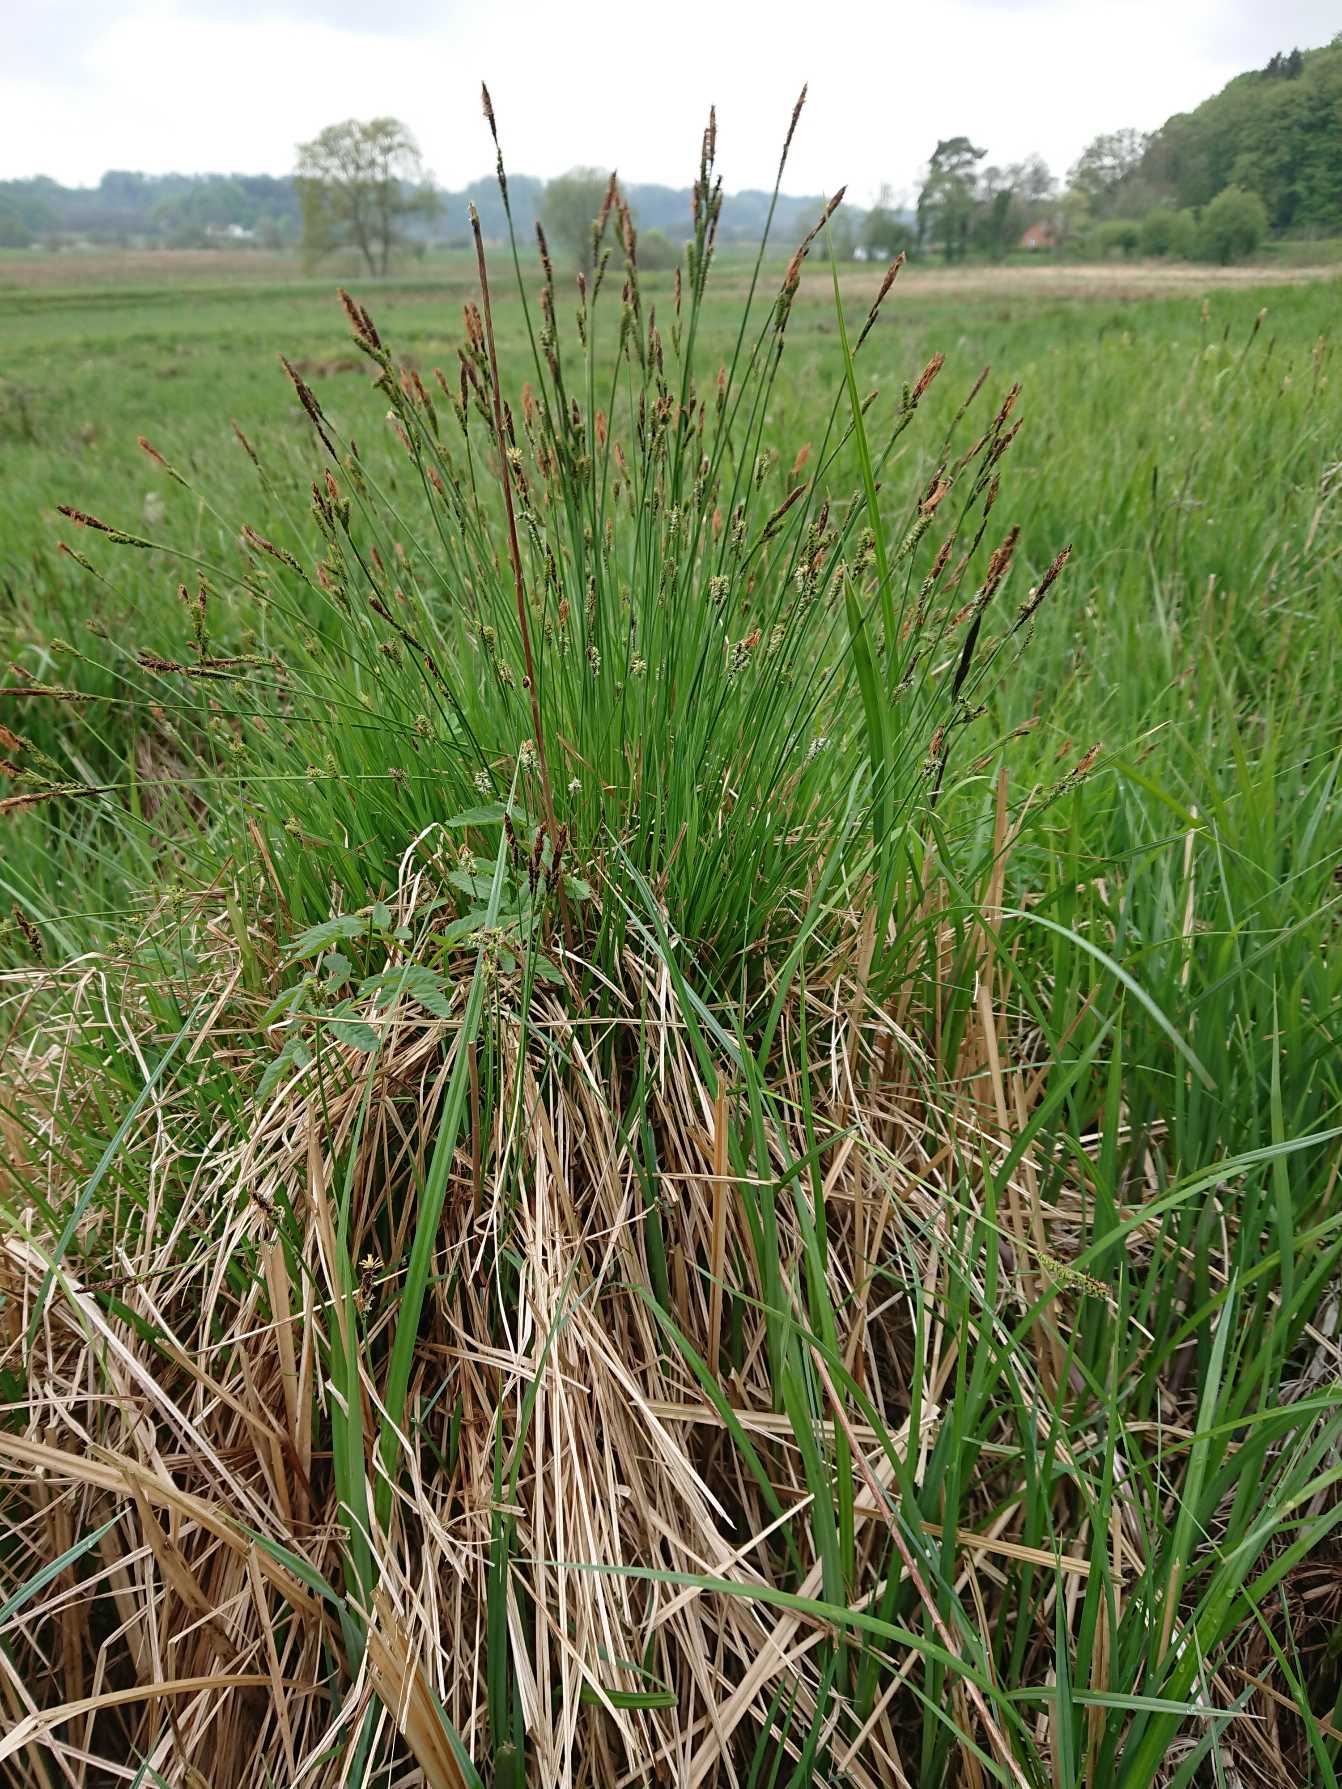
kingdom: Plantae
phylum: Tracheophyta
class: Liliopsida
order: Poales
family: Cyperaceae
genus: Carex
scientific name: Carex cespitosa
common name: Tue-star
